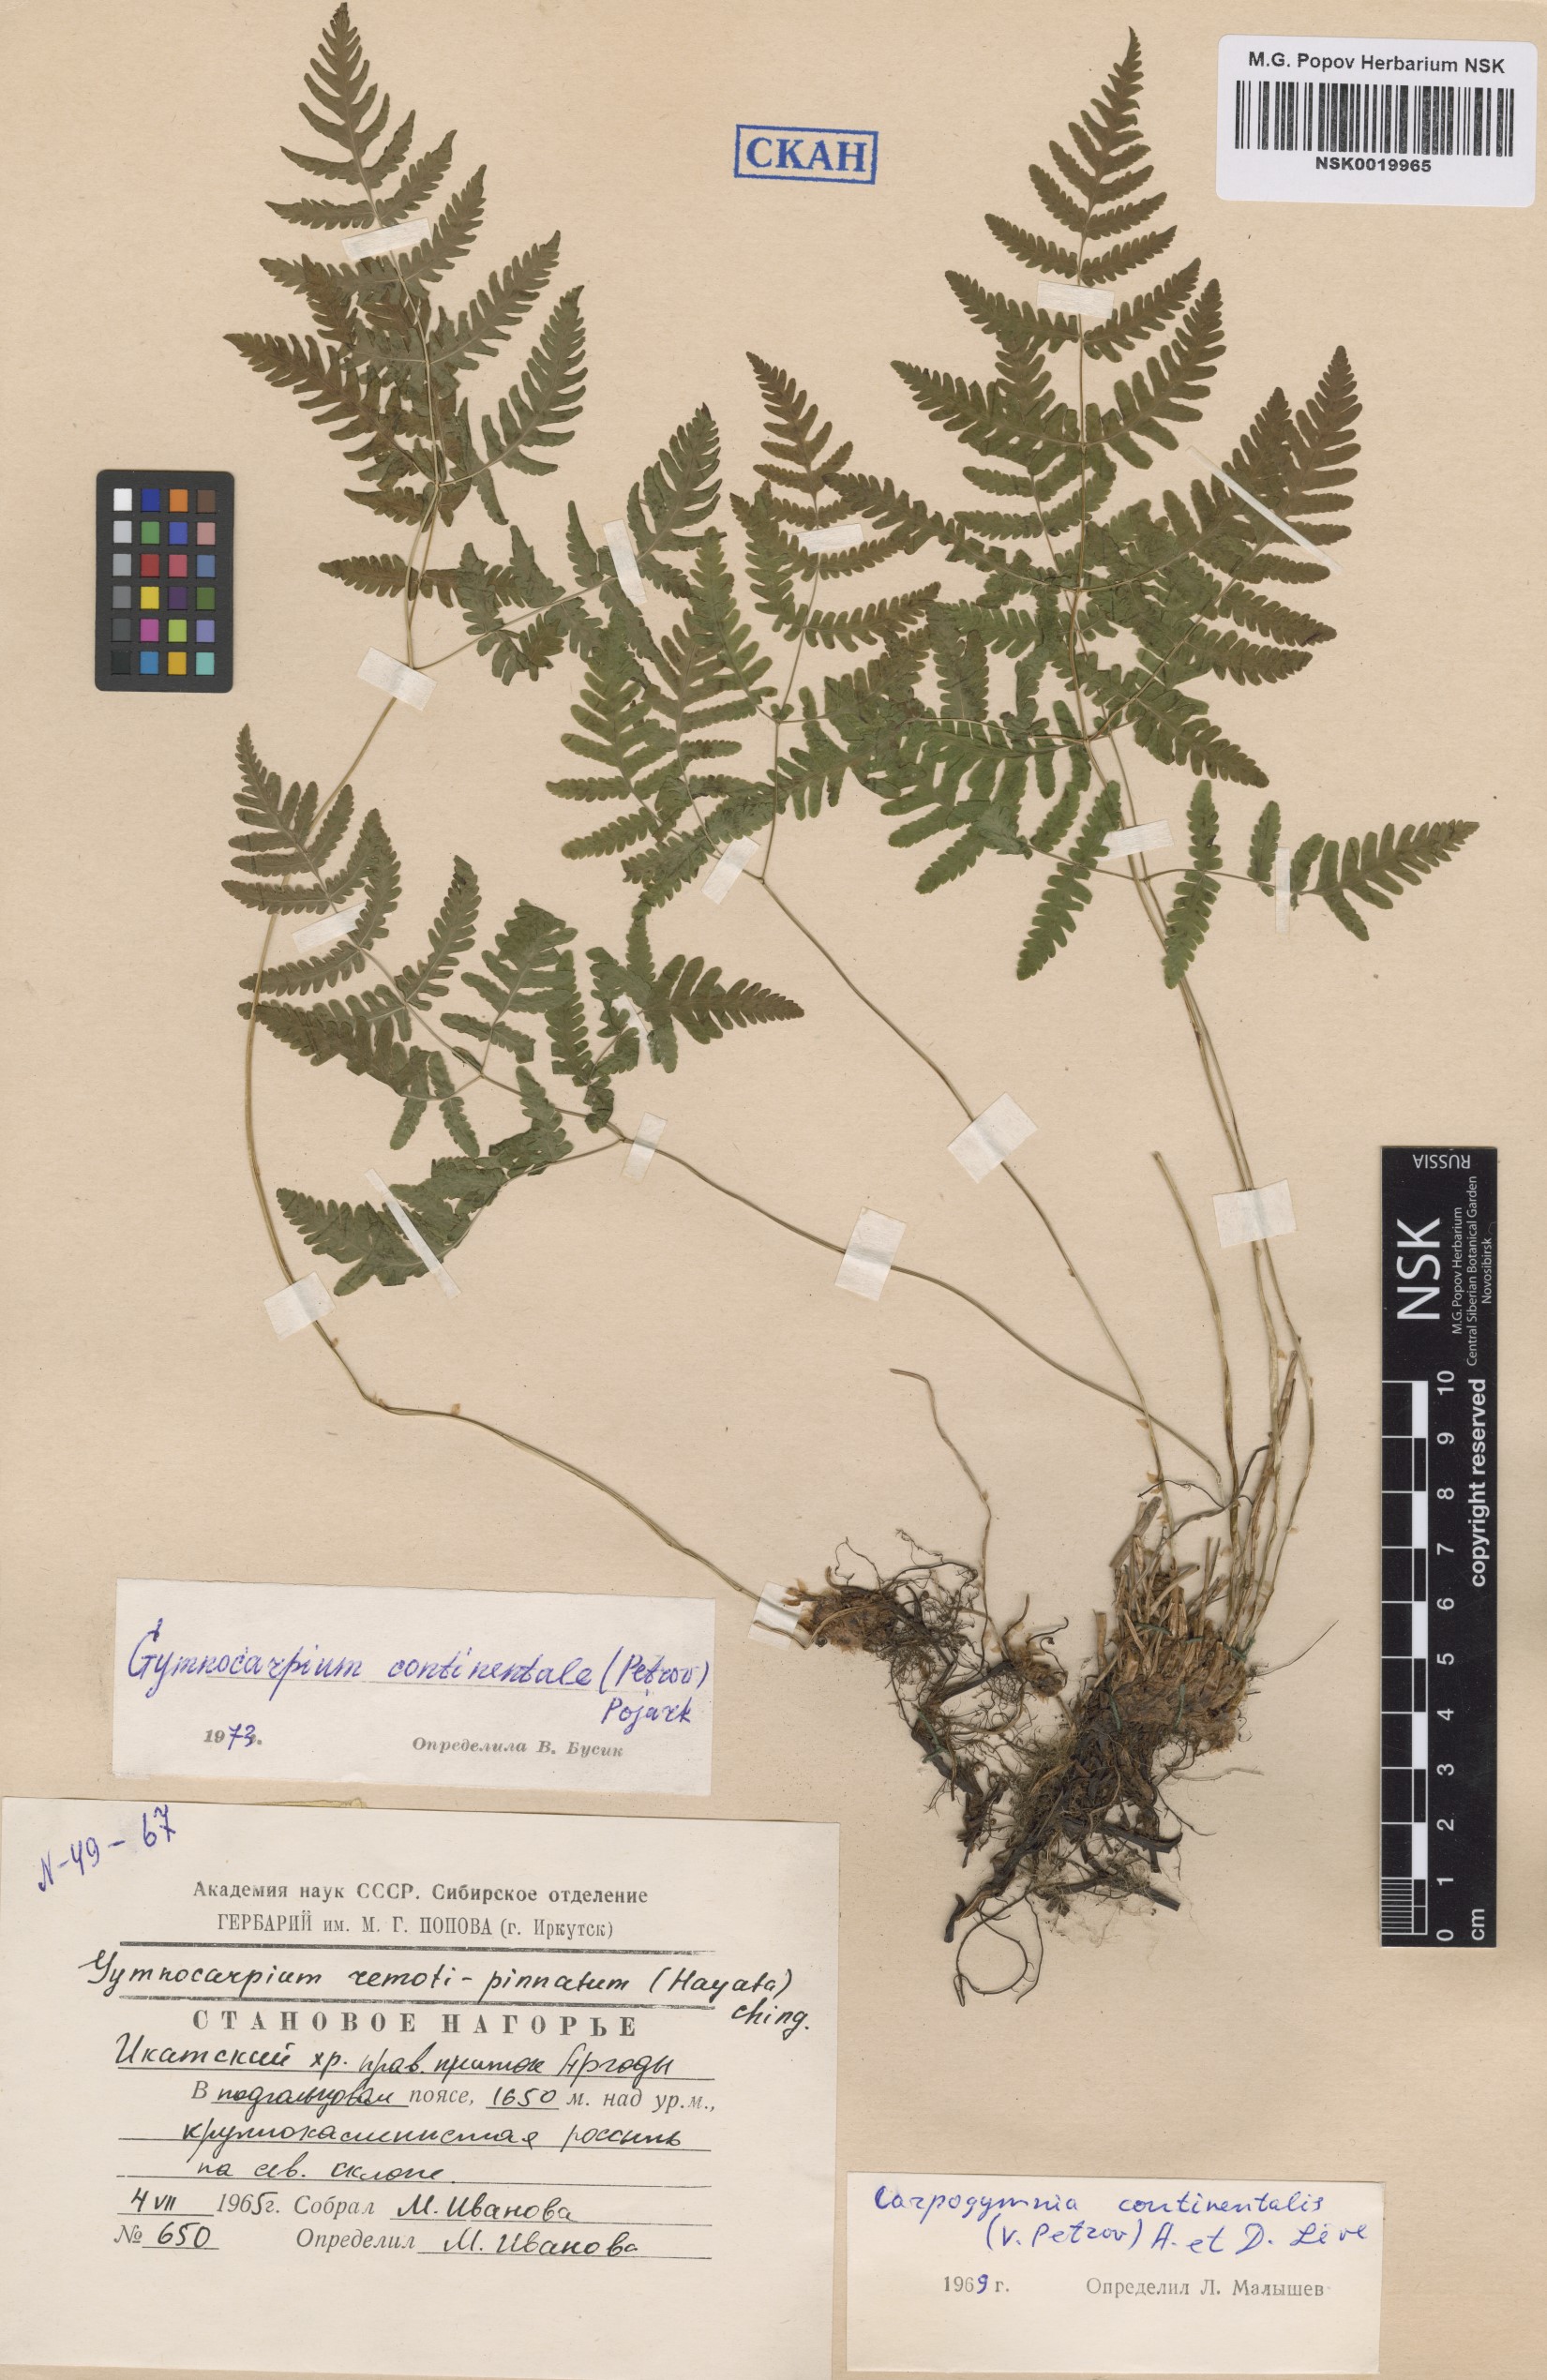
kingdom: Plantae
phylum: Tracheophyta
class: Polypodiopsida
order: Polypodiales
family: Cystopteridaceae
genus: Gymnocarpium
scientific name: Gymnocarpium continentale
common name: Asian oak fern
